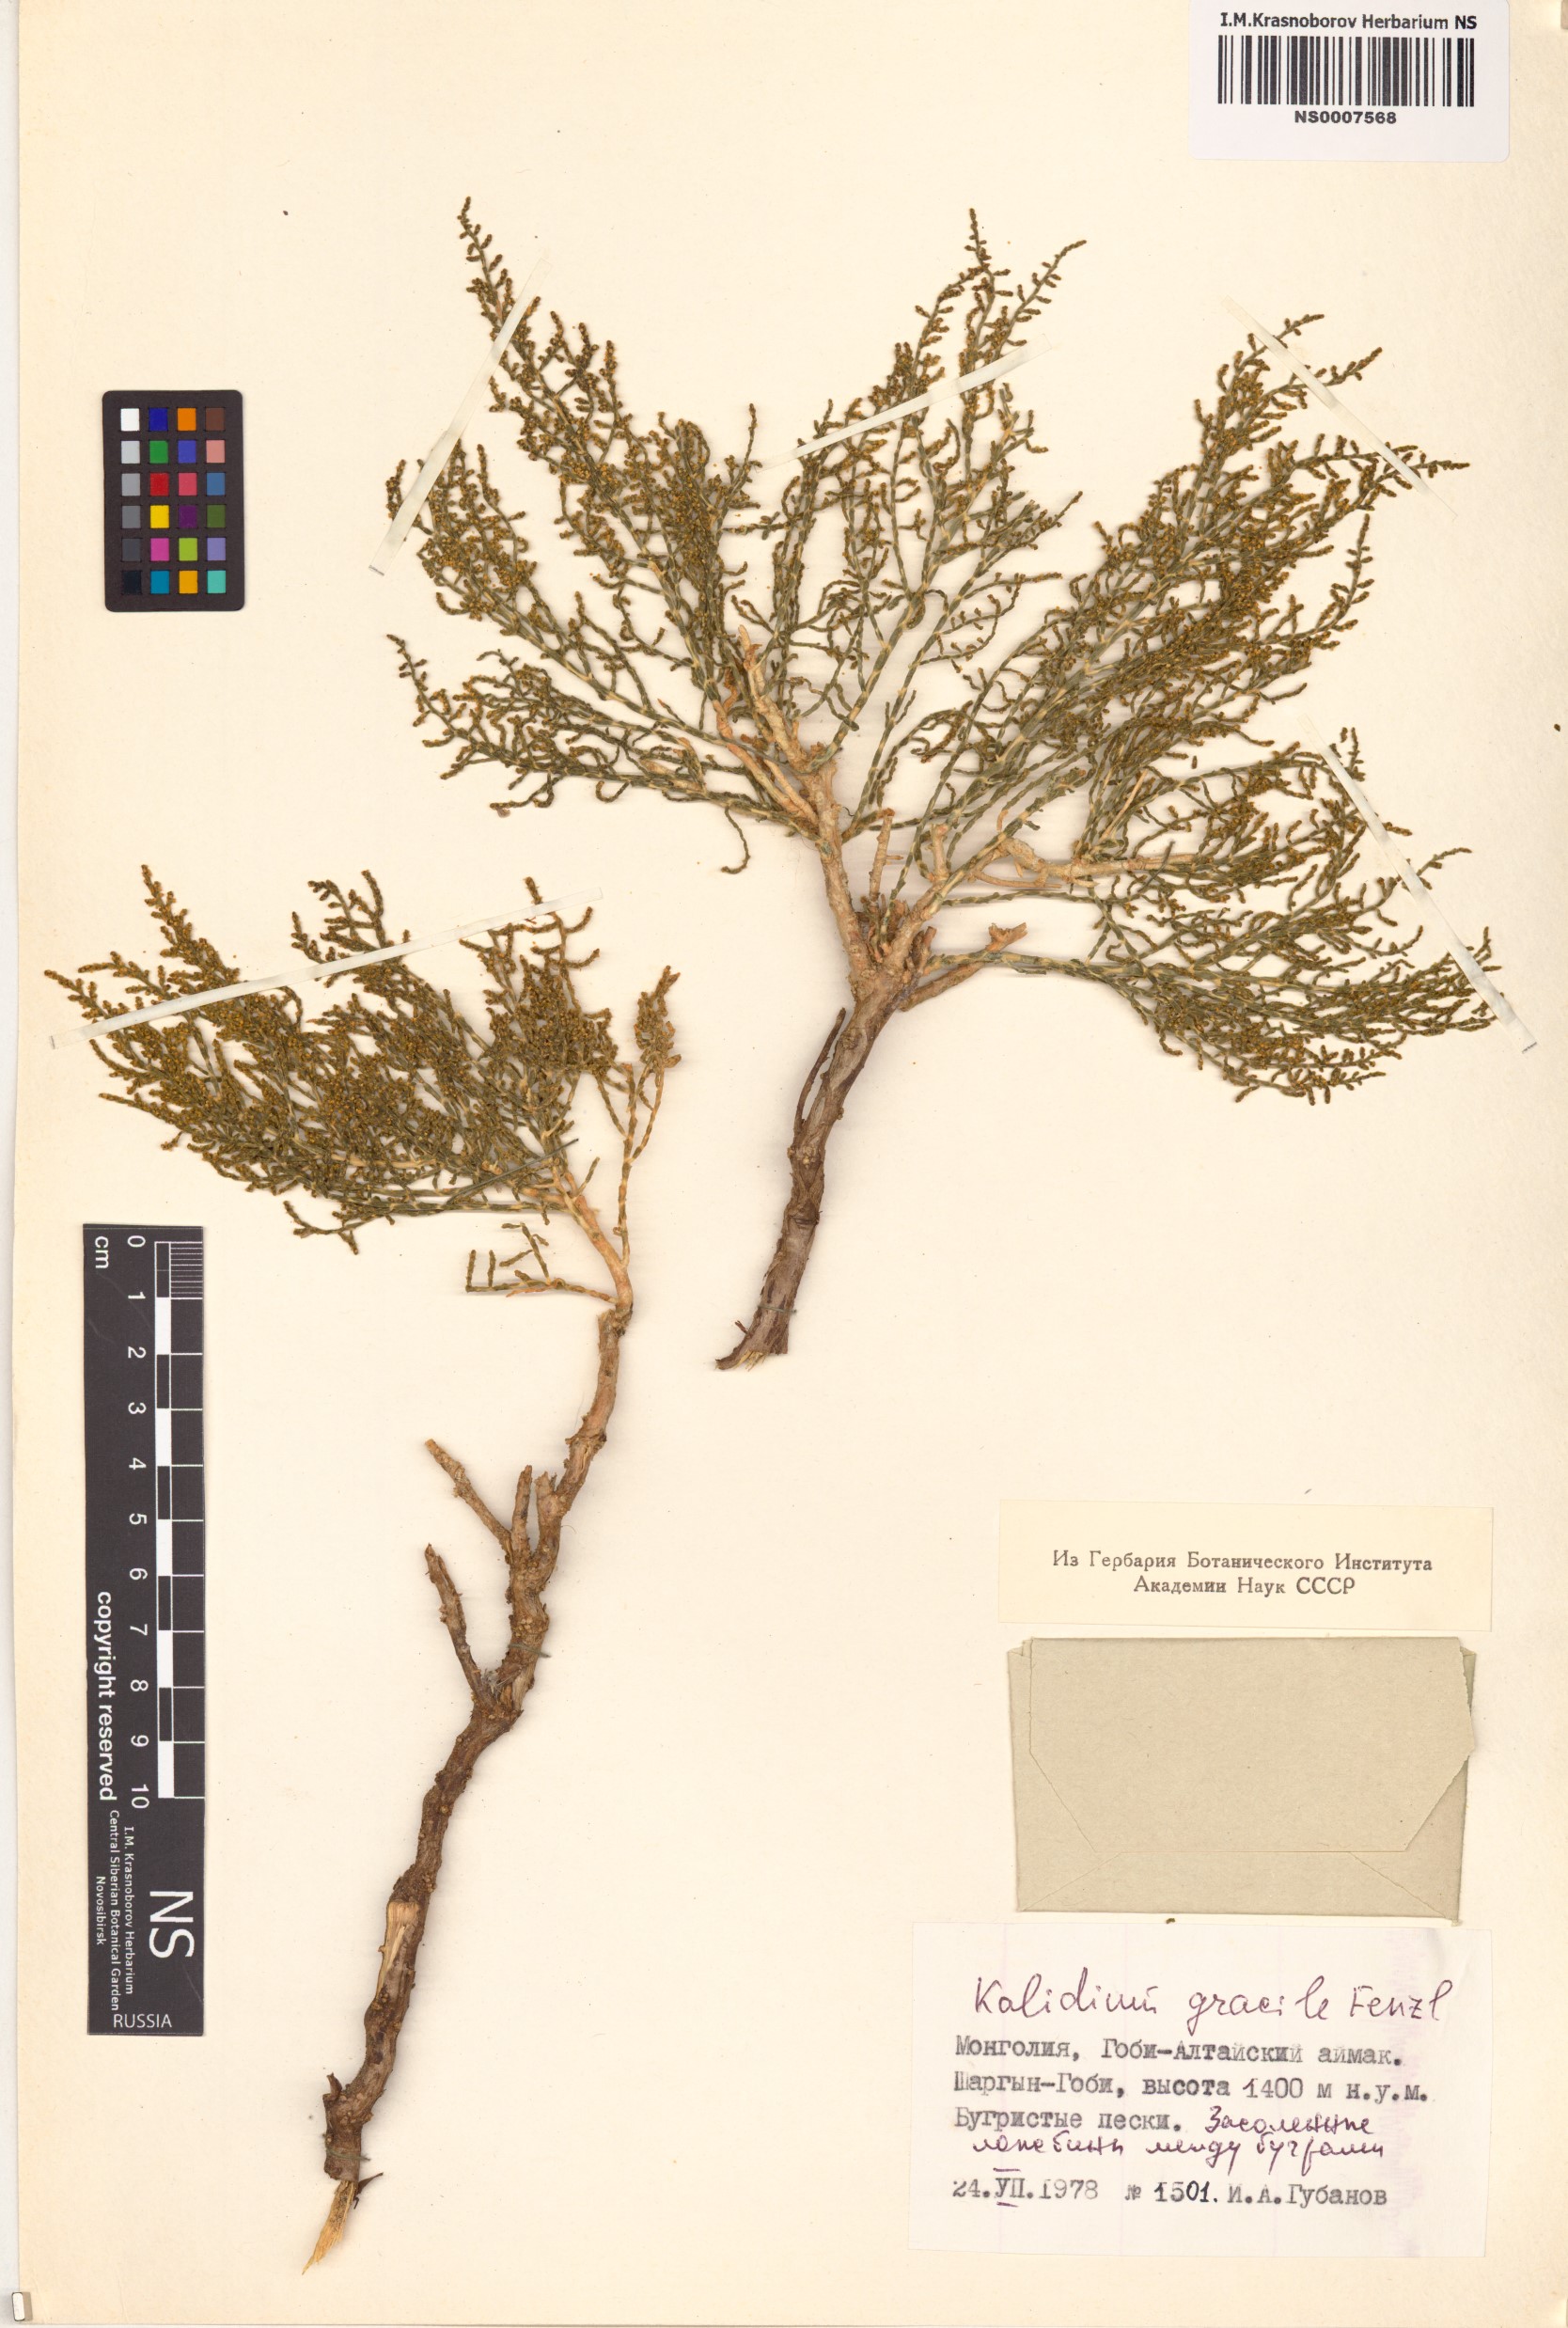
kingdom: Plantae
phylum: Tracheophyta
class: Magnoliopsida
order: Caryophyllales
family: Amaranthaceae
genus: Kalidium
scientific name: Kalidium gracile
